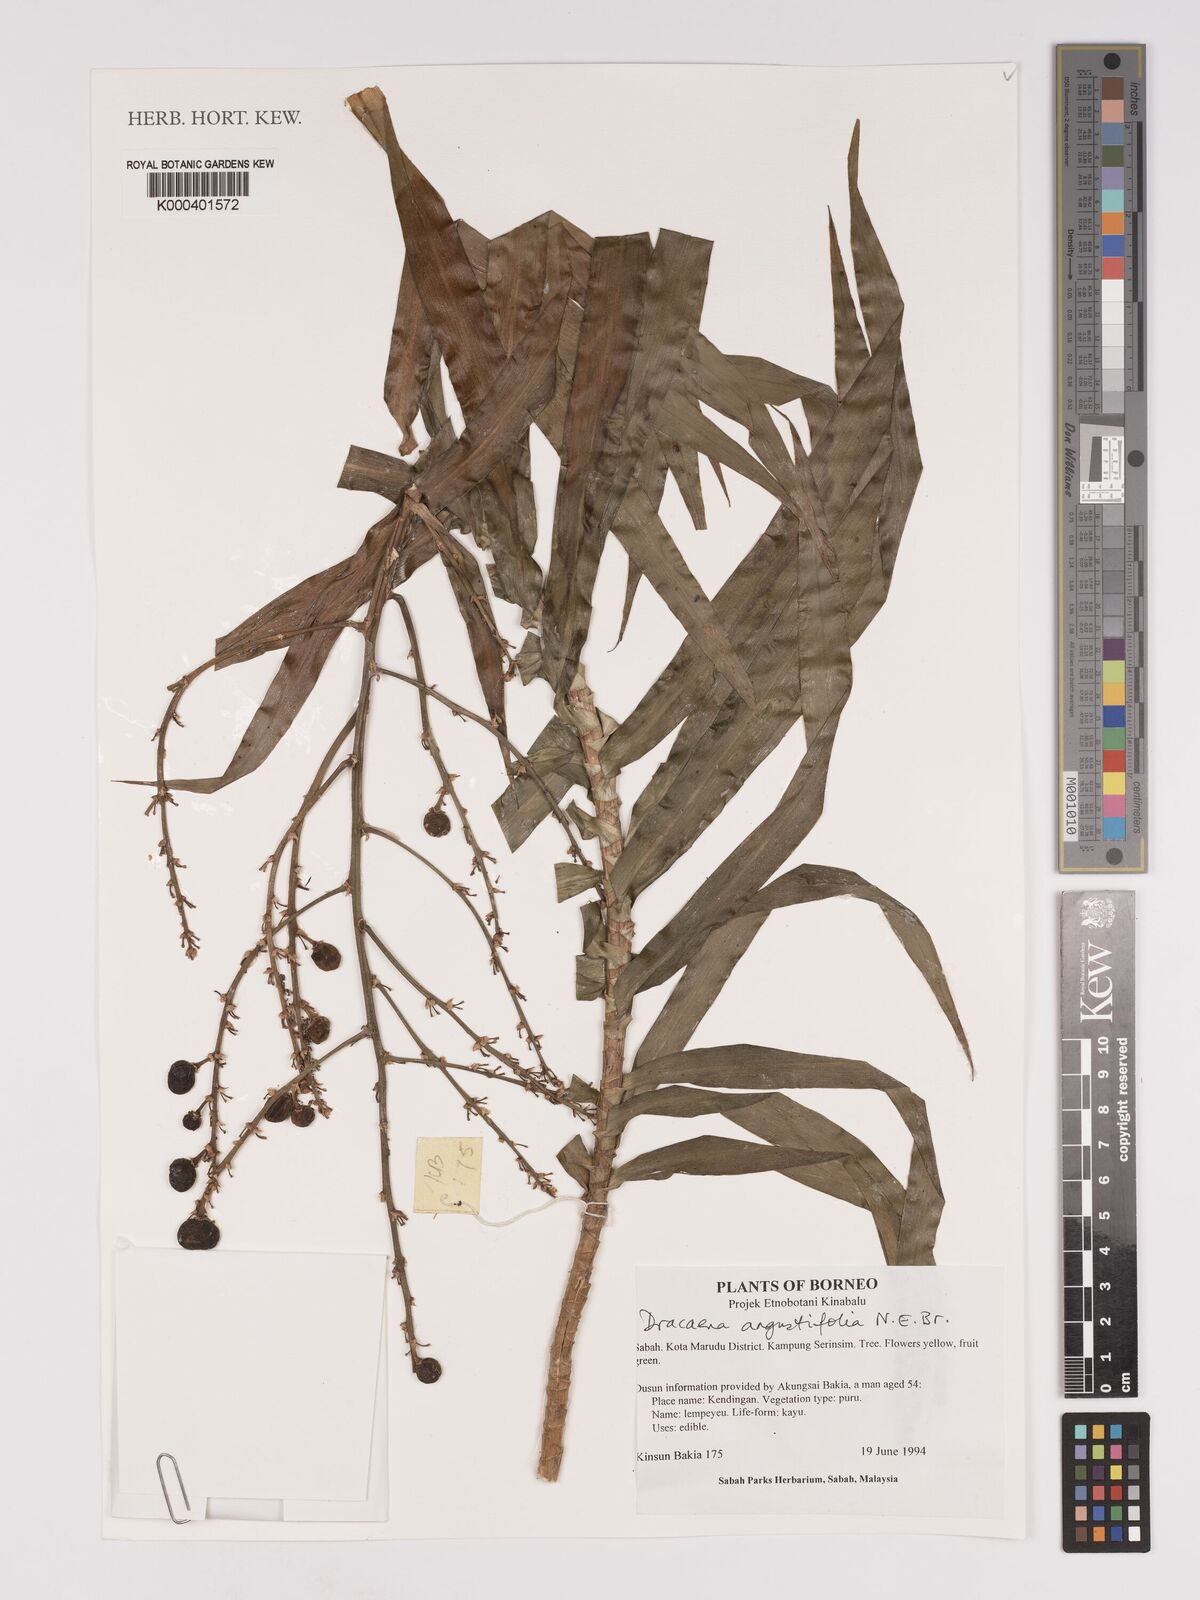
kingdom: Plantae
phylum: Tracheophyta
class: Liliopsida
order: Asparagales
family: Asparagaceae
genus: Dracaena
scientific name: Dracaena angustifolia
